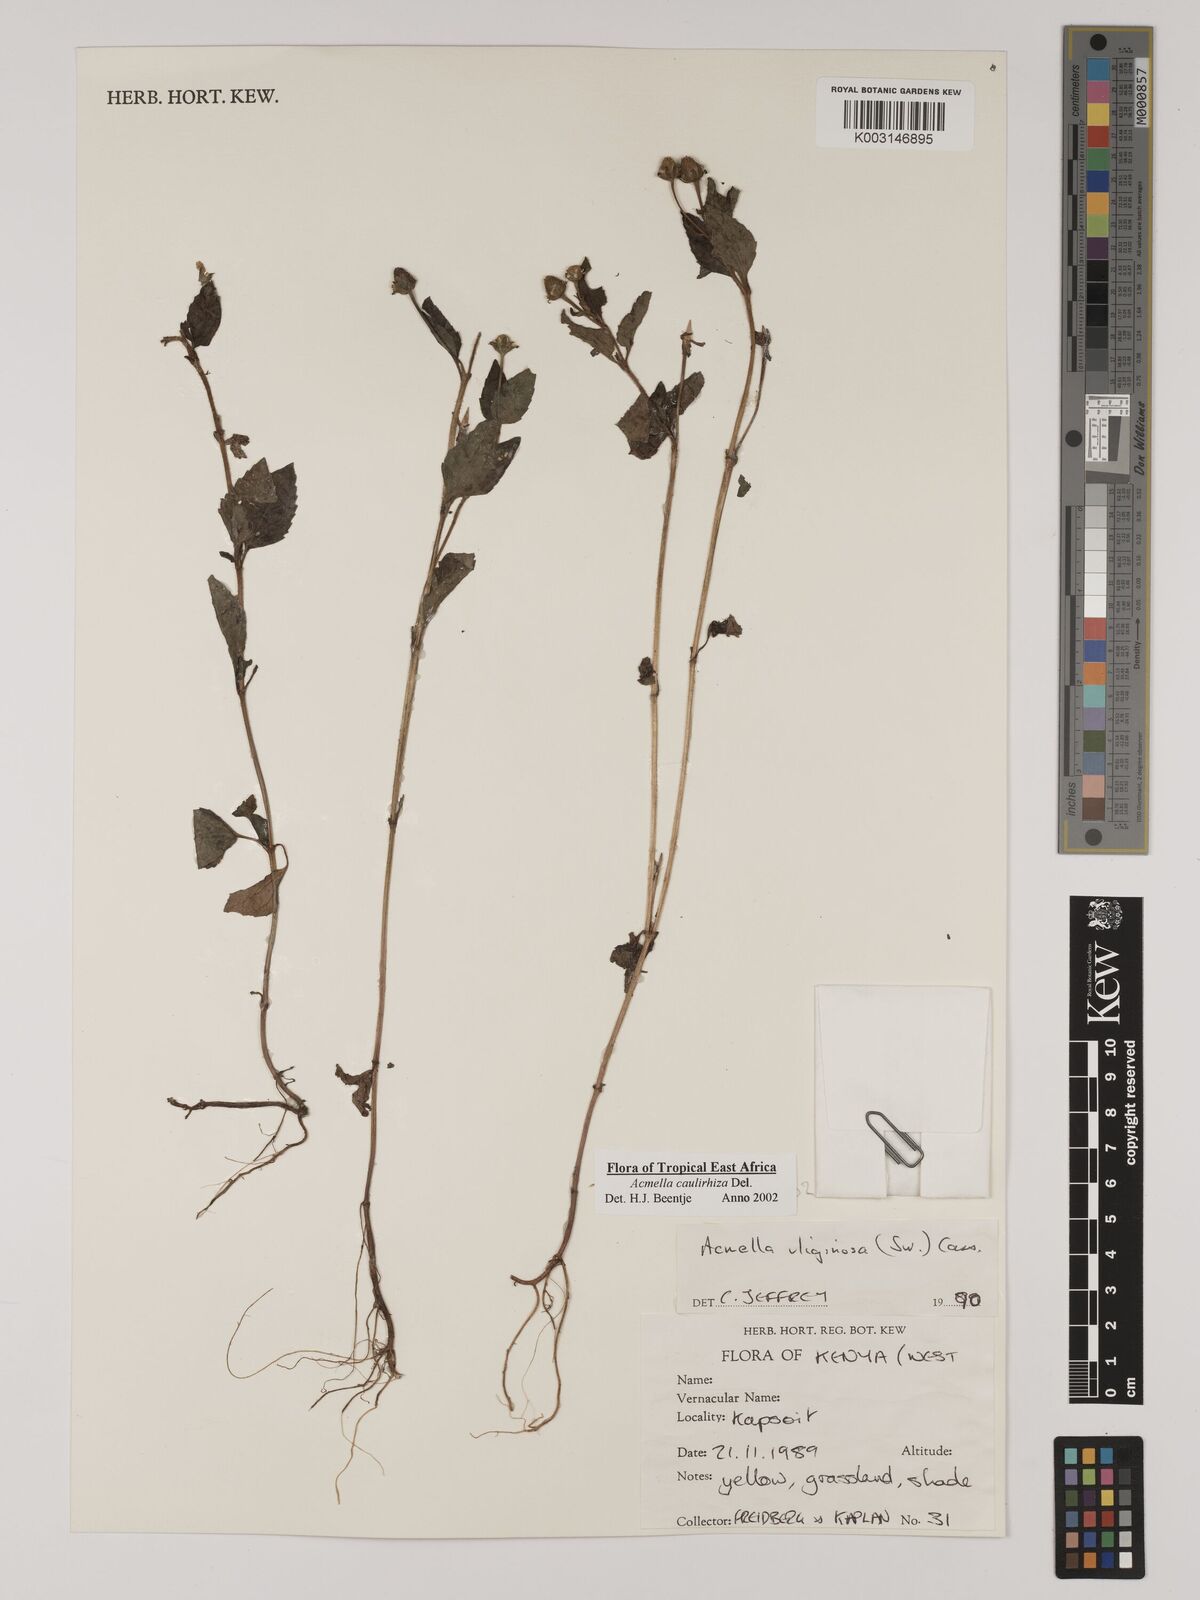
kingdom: Plantae
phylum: Tracheophyta
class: Magnoliopsida
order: Asterales
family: Asteraceae
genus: Acmella
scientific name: Acmella caulirhiza
